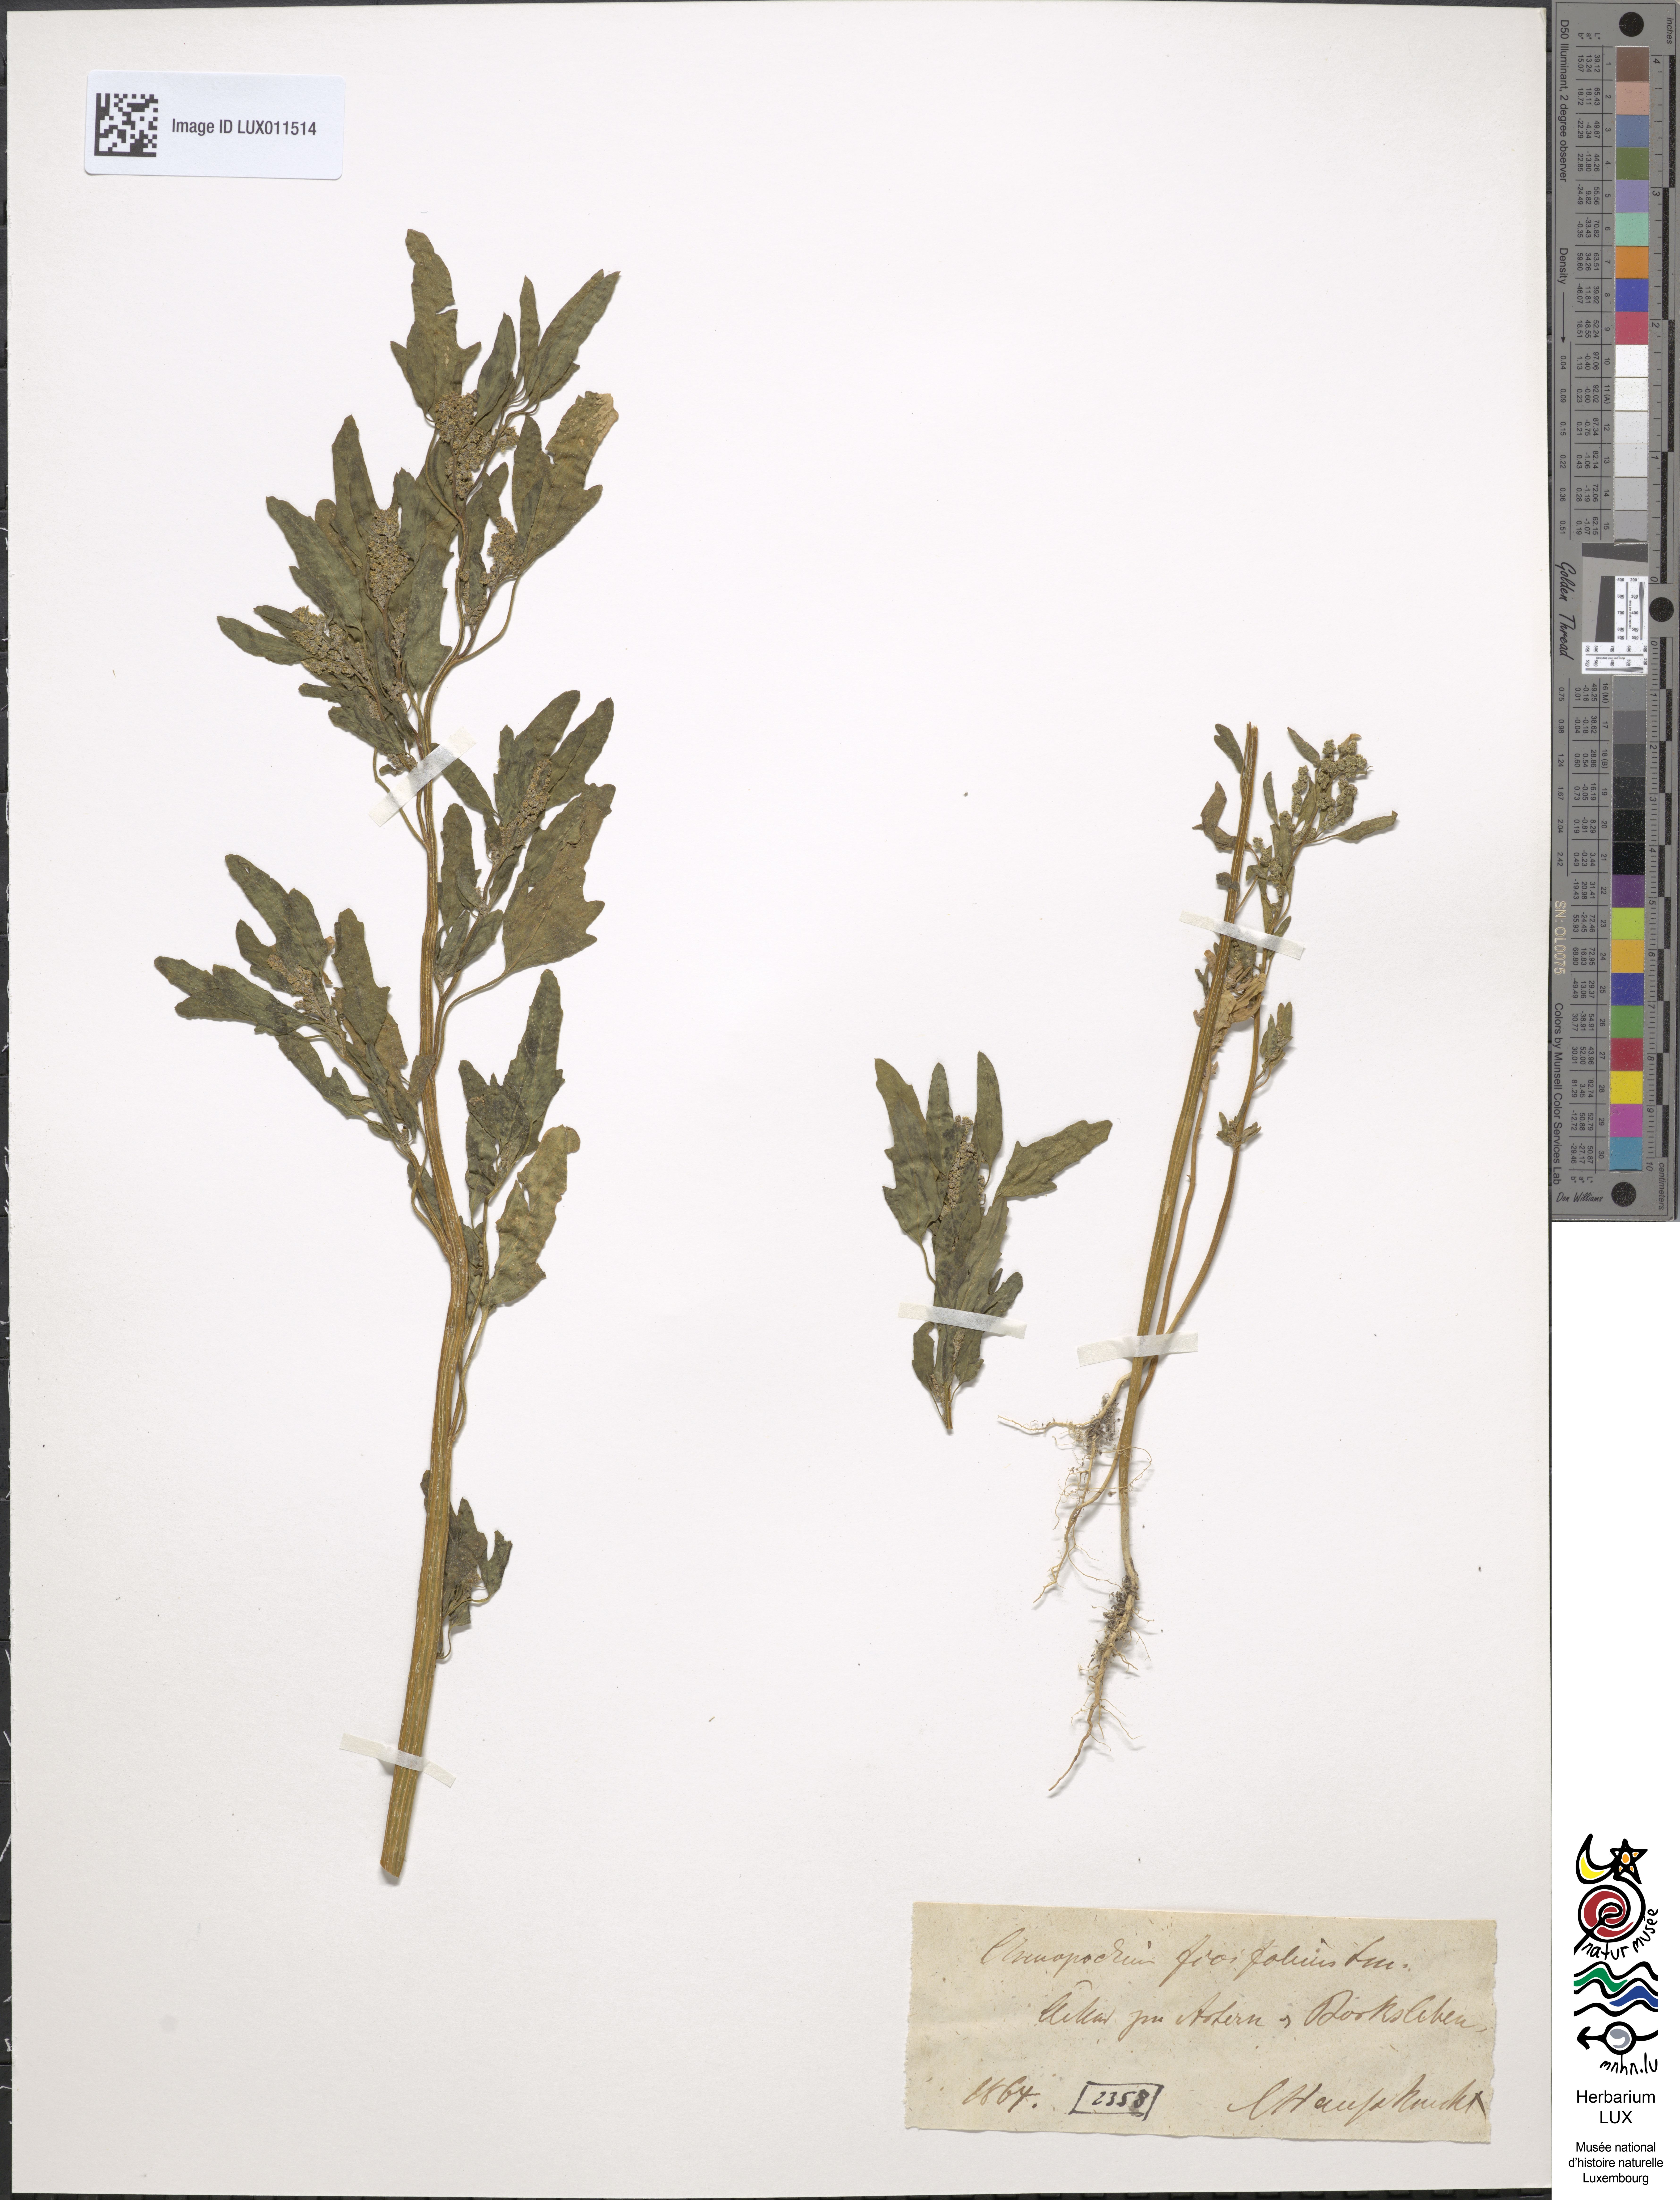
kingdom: Plantae
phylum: Tracheophyta
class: Magnoliopsida
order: Caryophyllales
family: Amaranthaceae
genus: Chenopodium
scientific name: Chenopodium ficifolium
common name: Fig-leaved goosefoot
